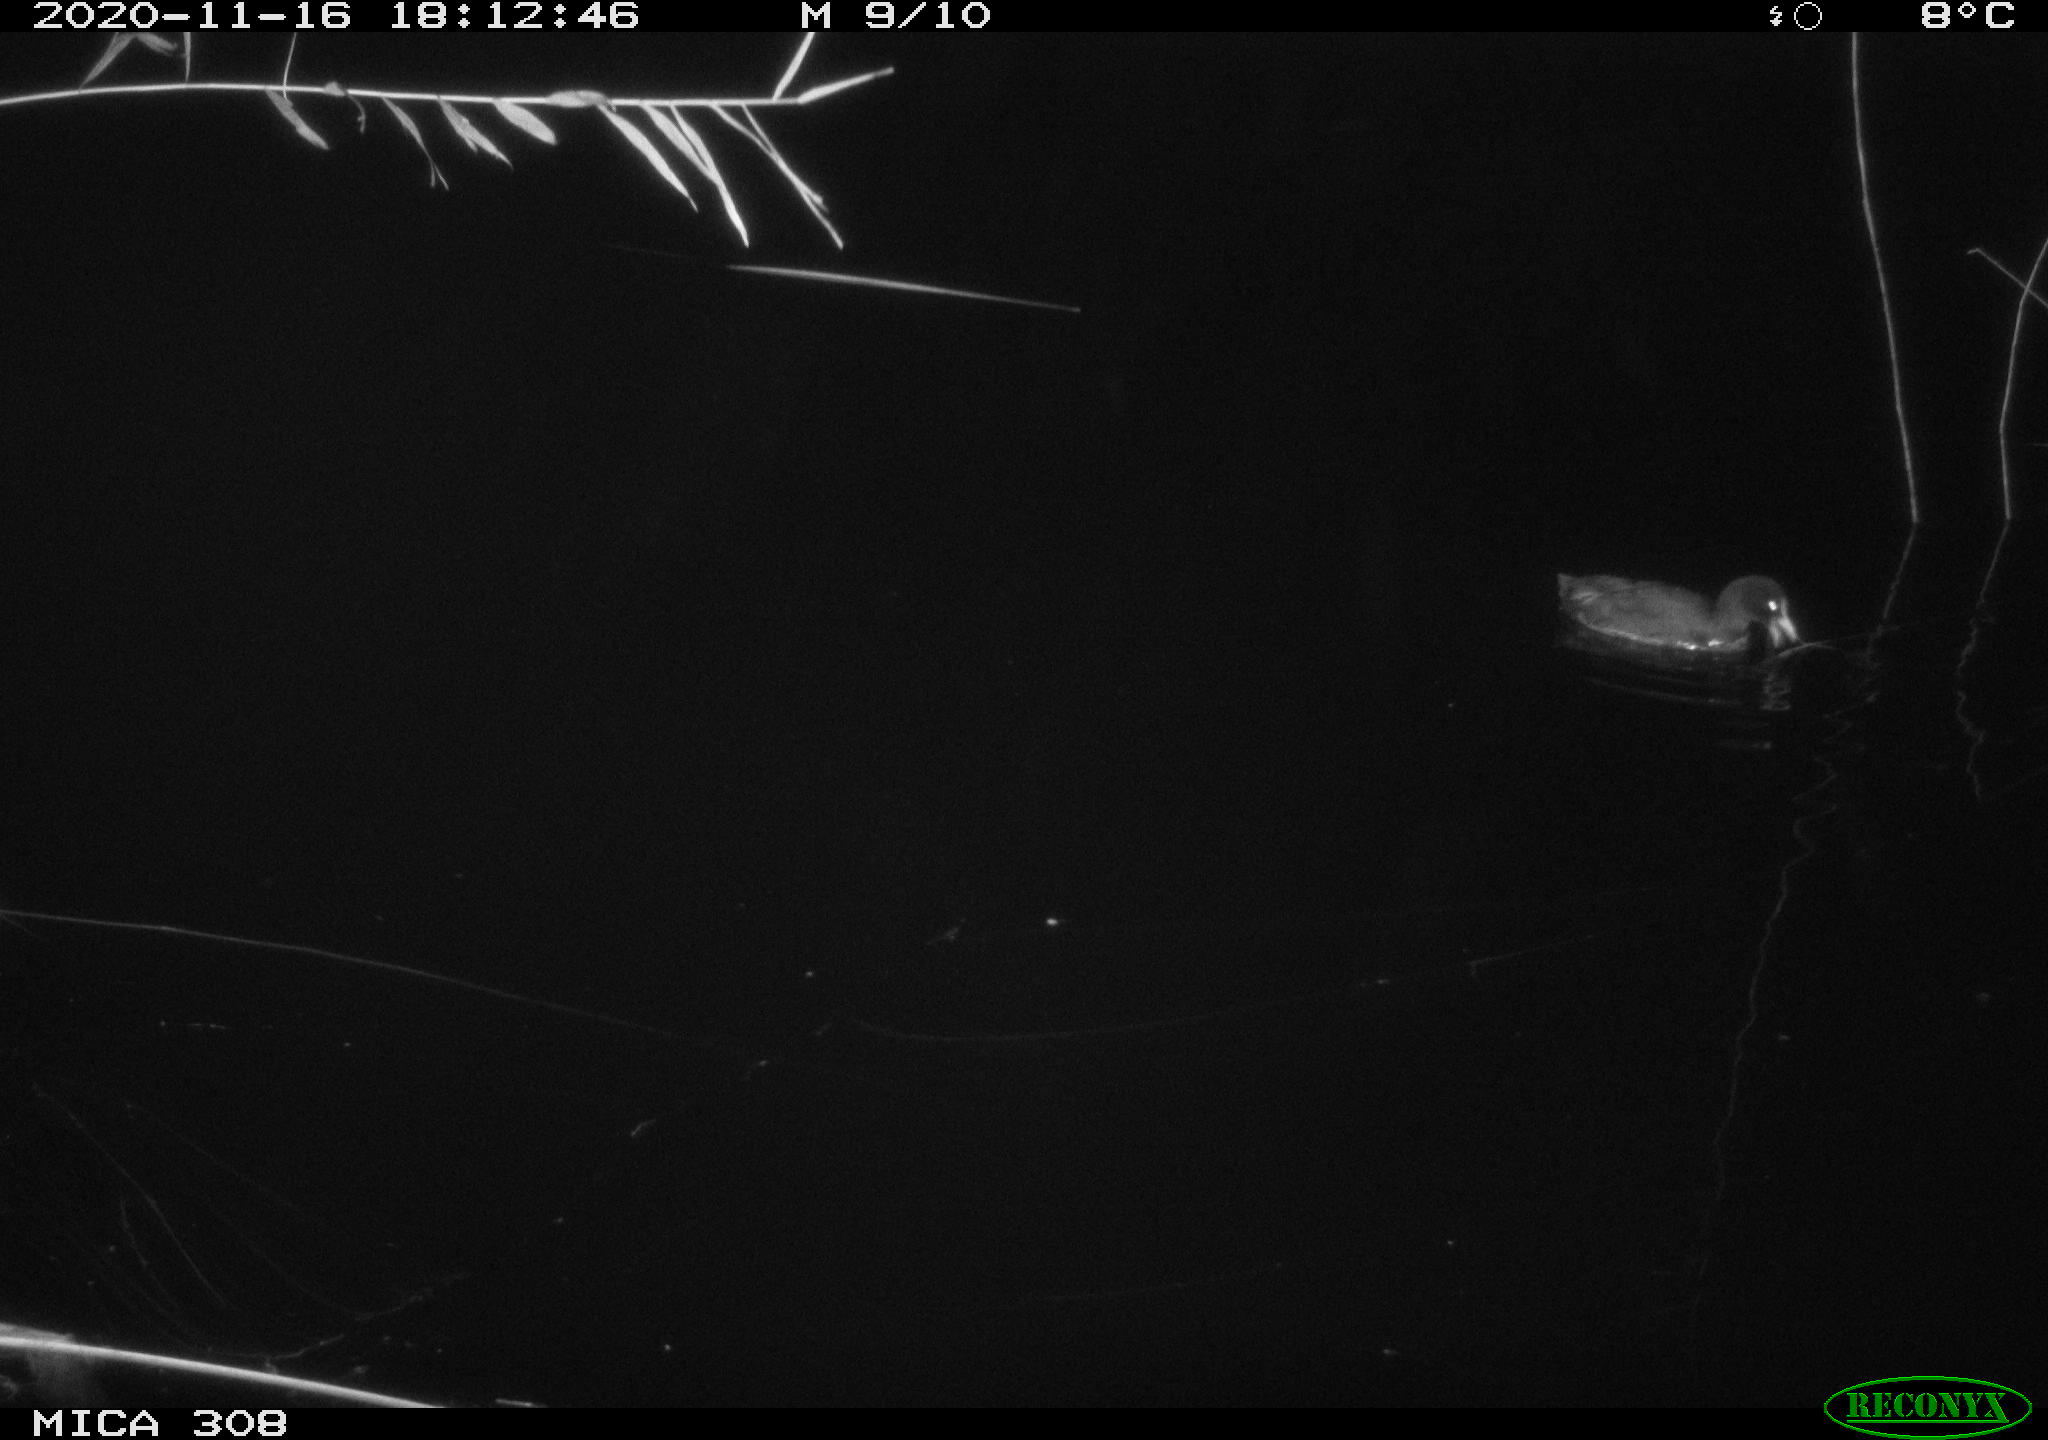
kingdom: Animalia
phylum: Chordata
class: Aves
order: Gruiformes
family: Rallidae
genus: Fulica
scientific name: Fulica atra
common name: Eurasian coot
